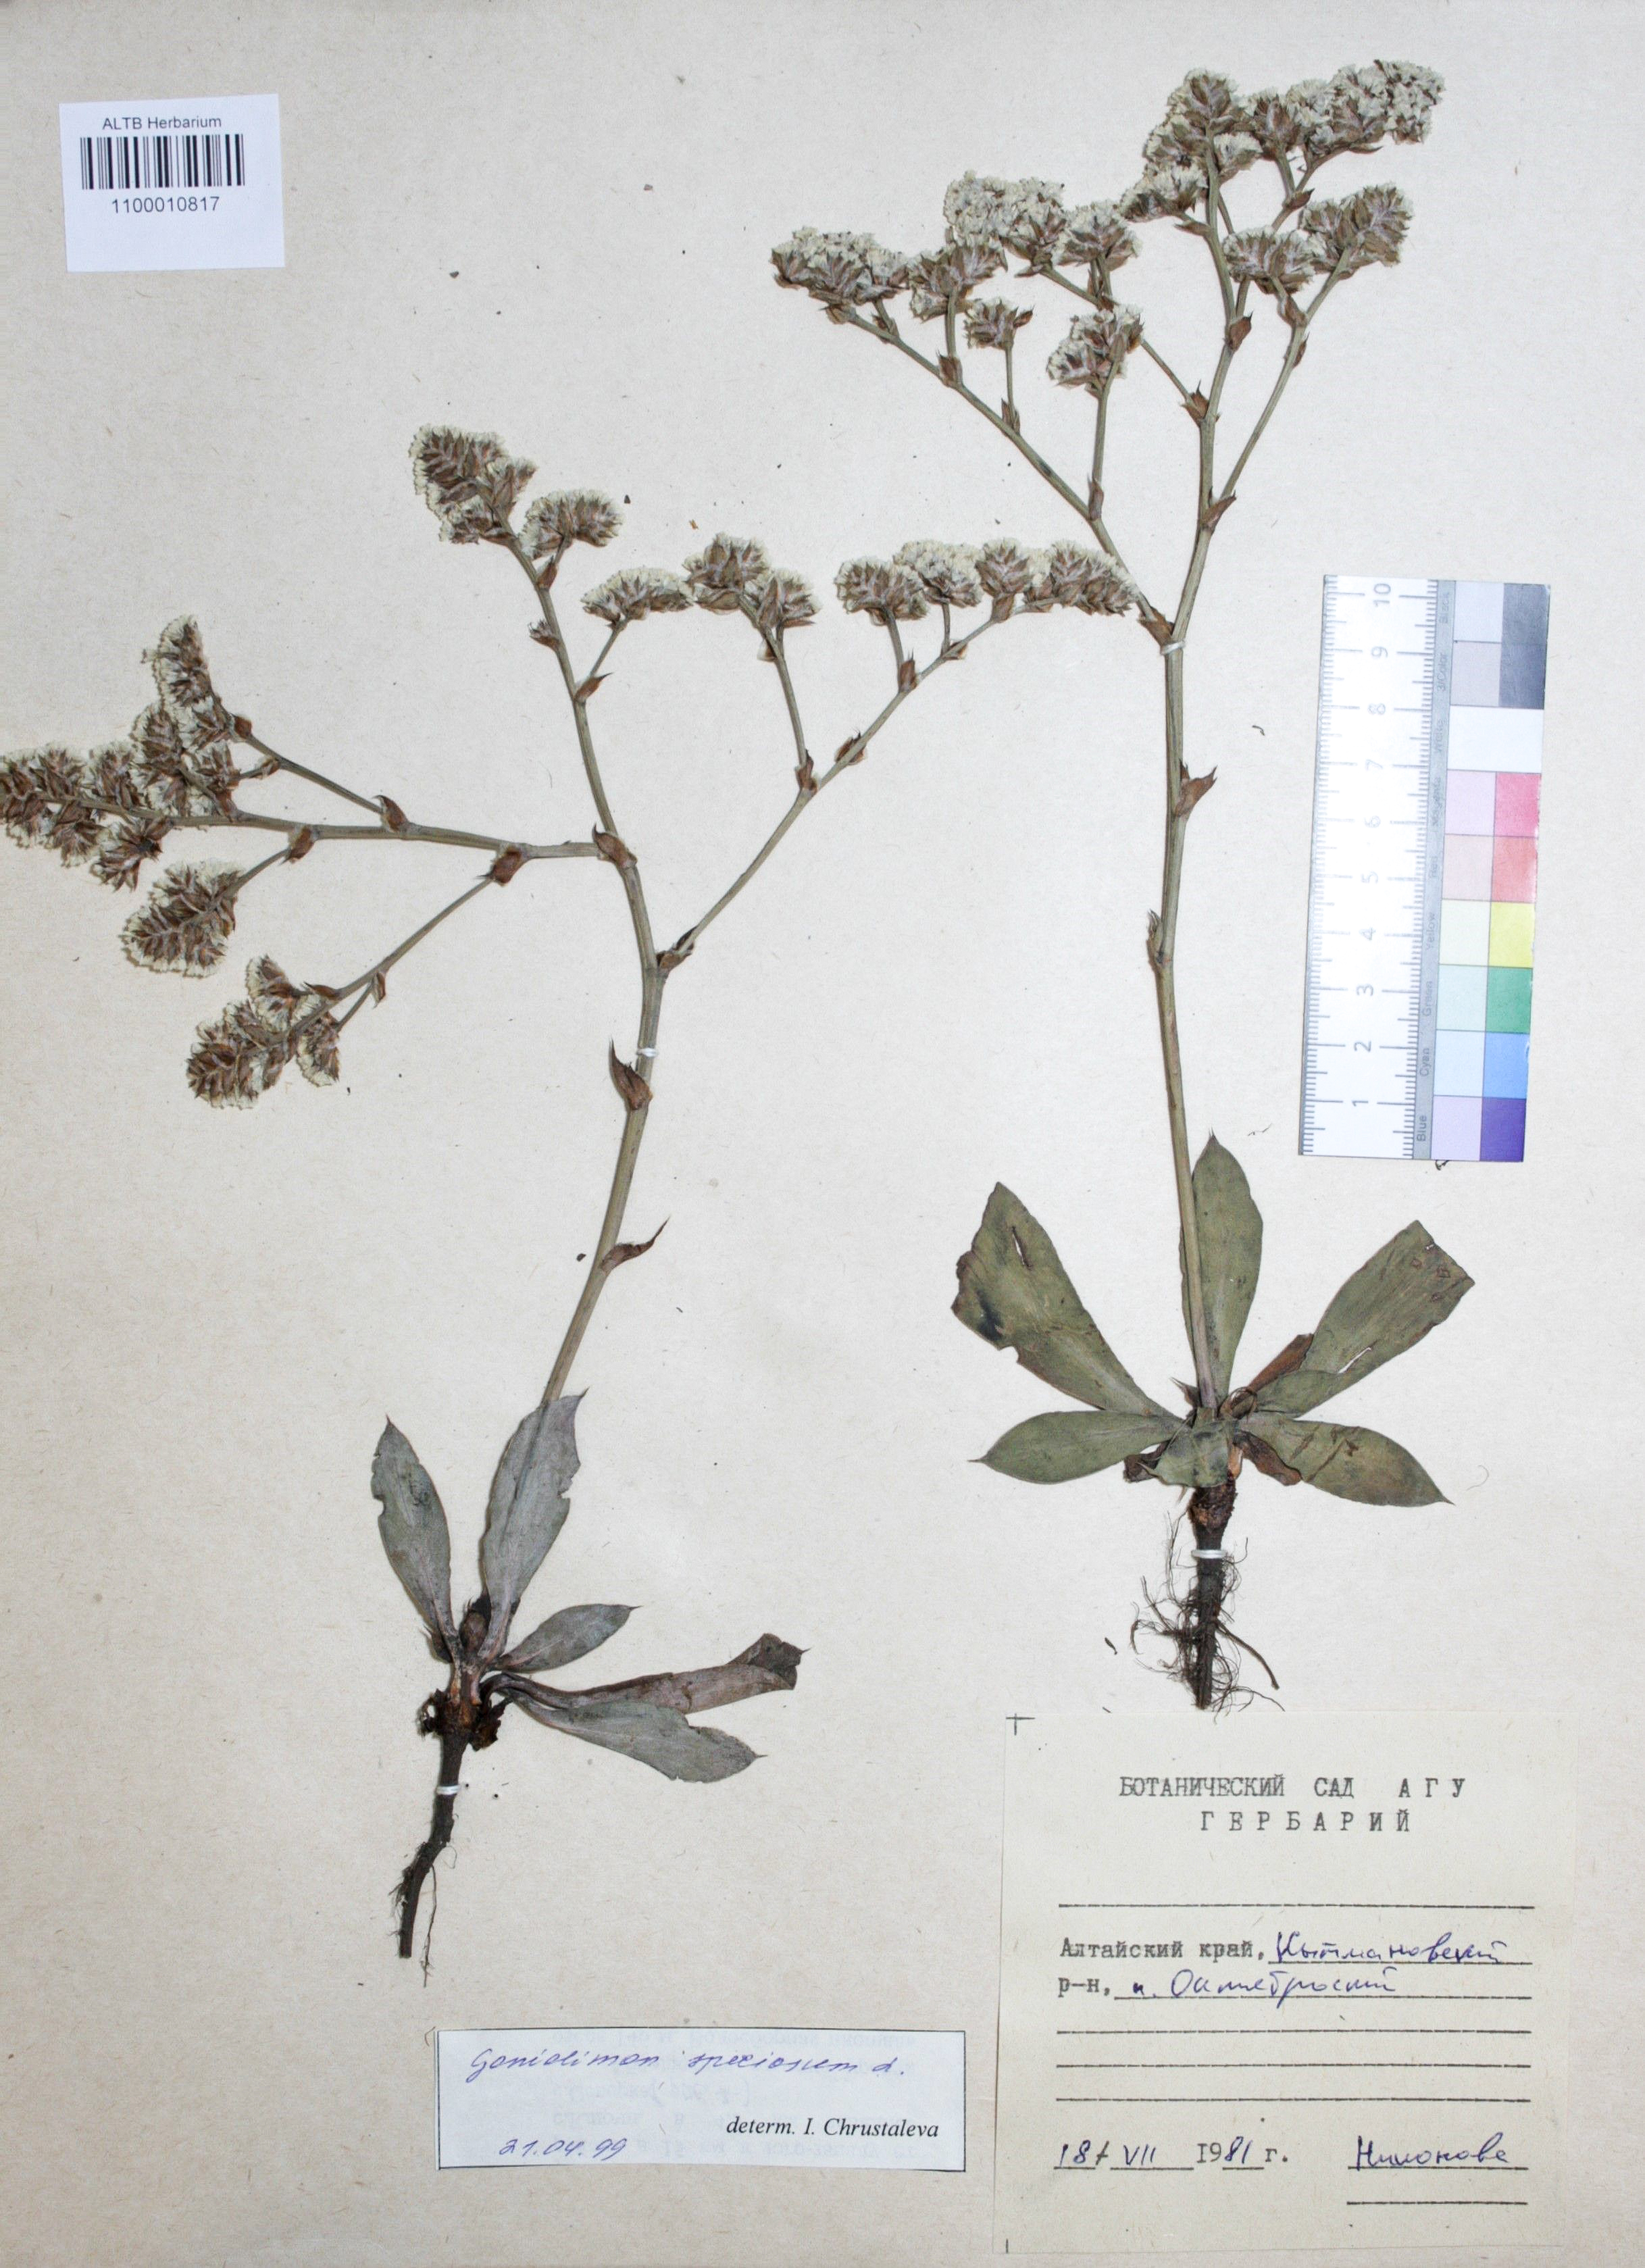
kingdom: Plantae
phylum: Tracheophyta
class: Magnoliopsida
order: Caryophyllales
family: Plumbaginaceae
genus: Goniolimon
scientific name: Goniolimon speciosum
